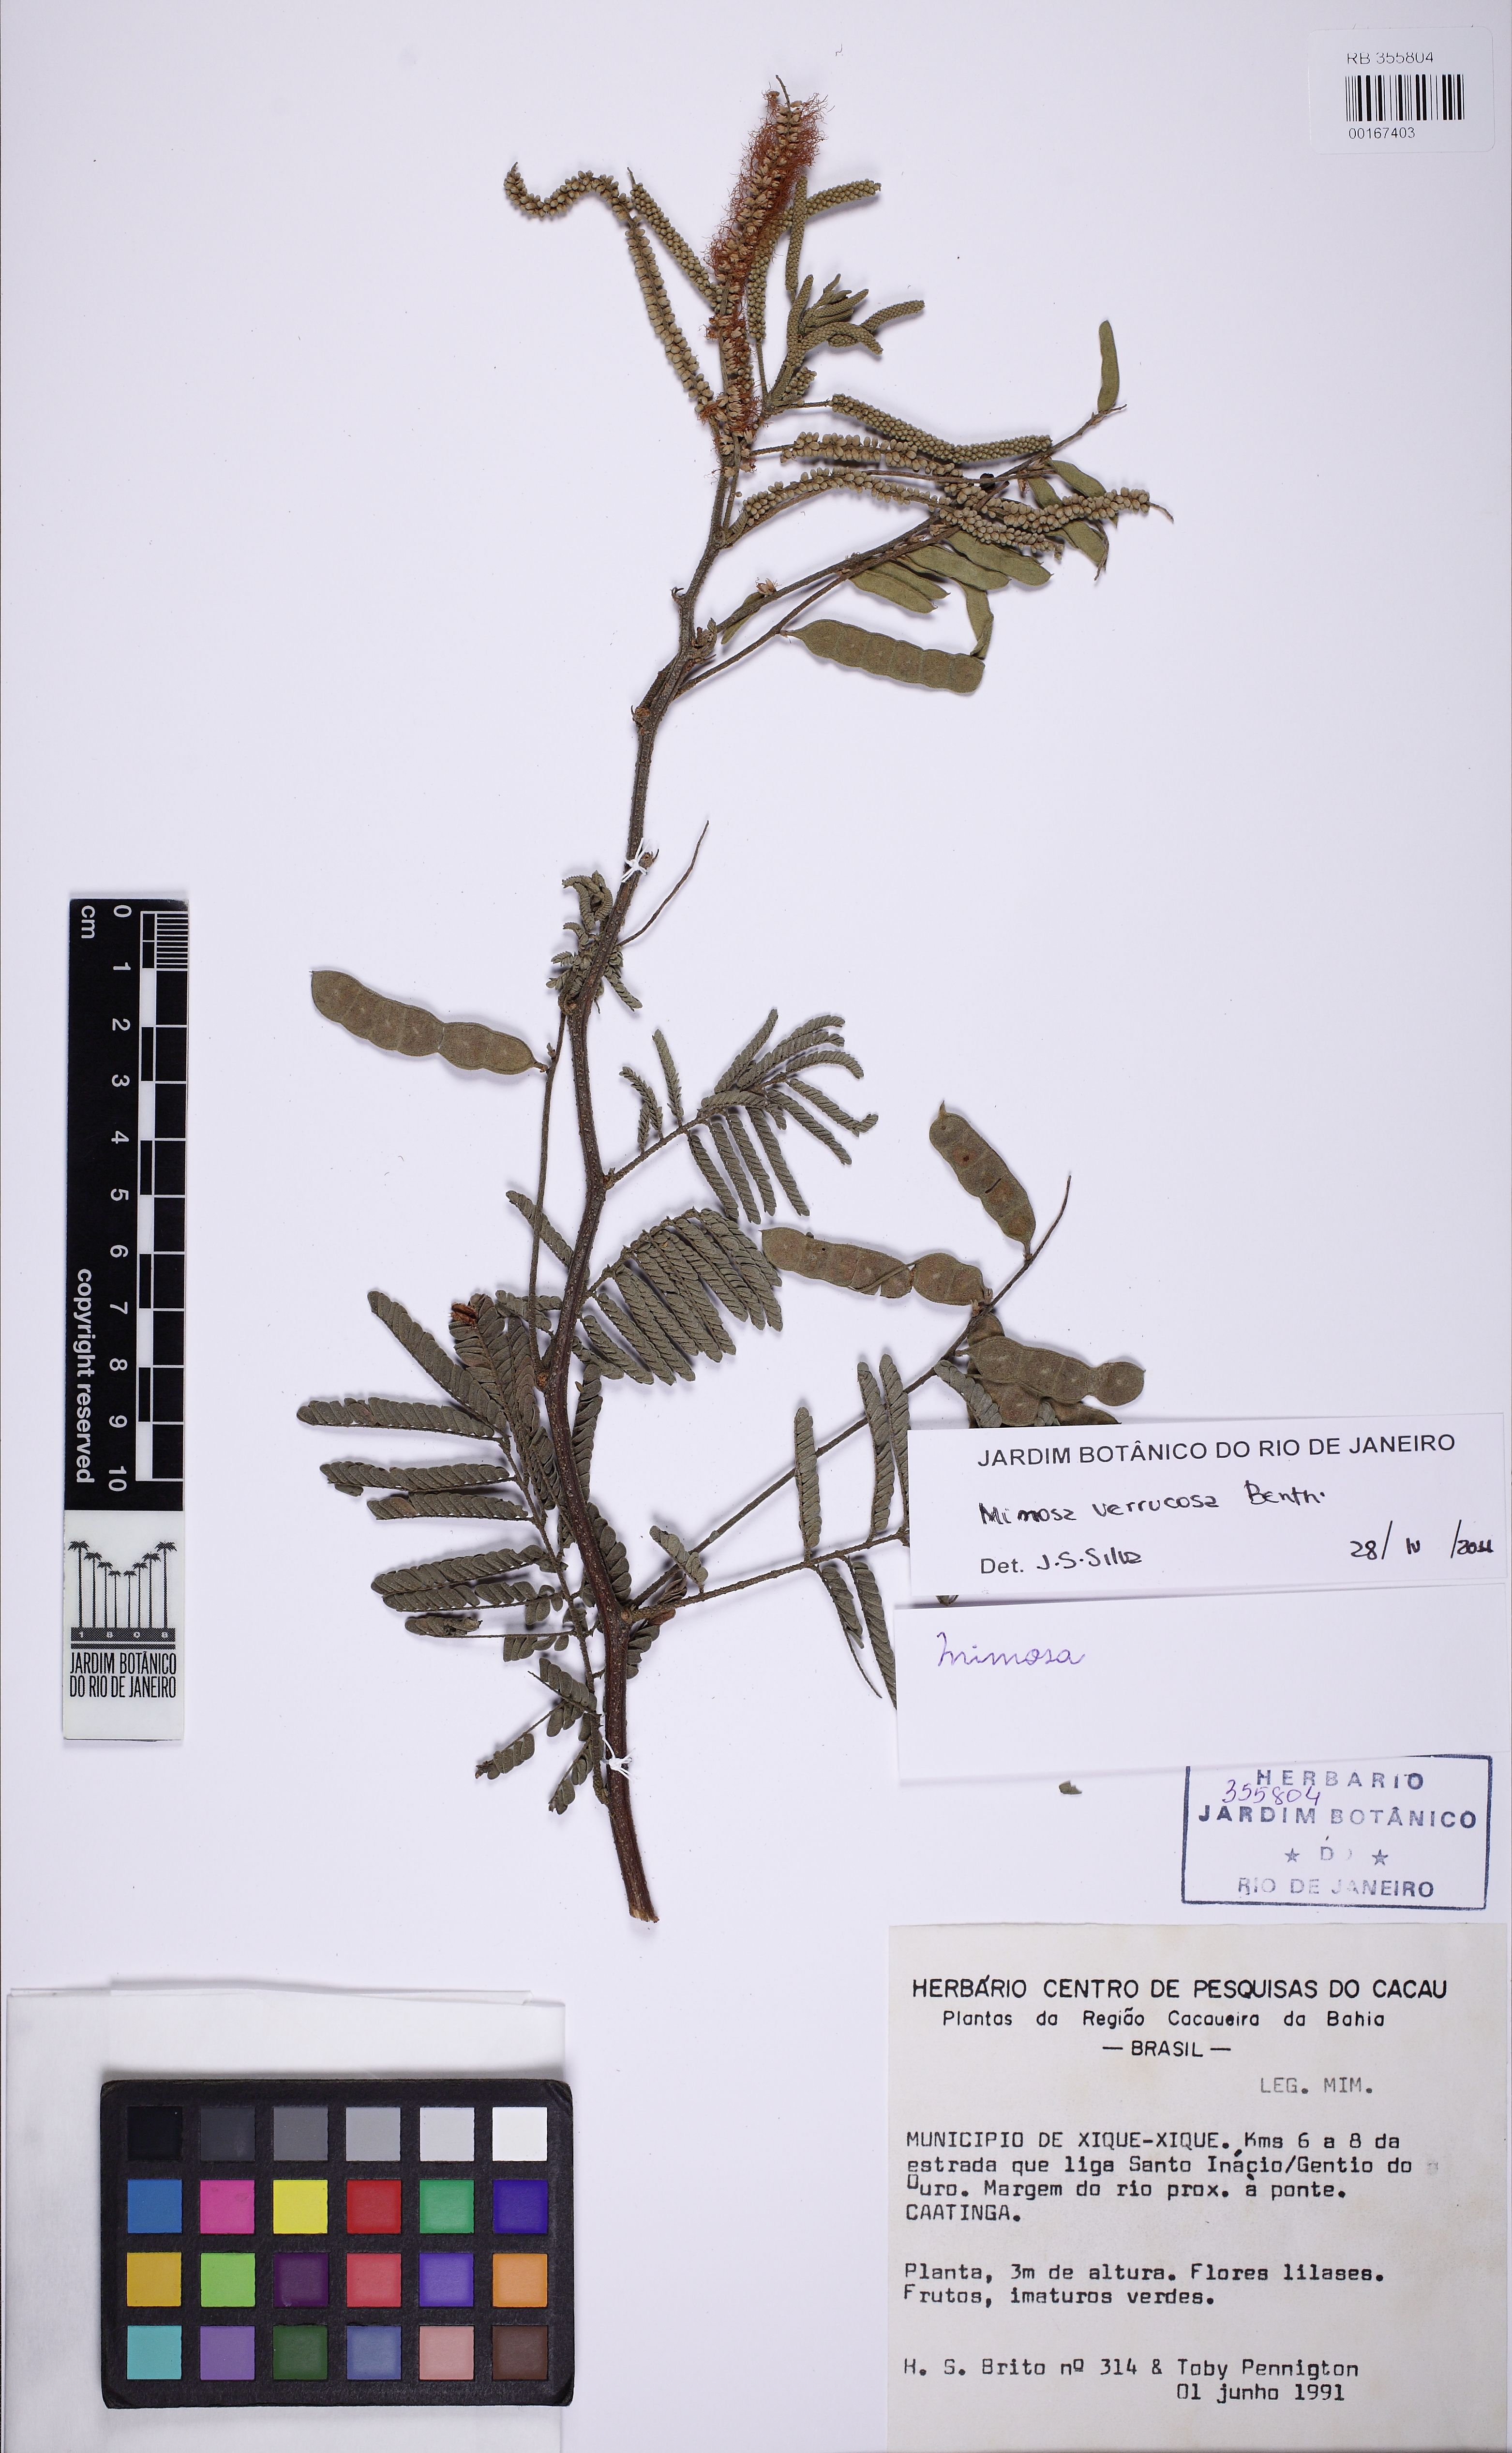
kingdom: Plantae
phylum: Tracheophyta
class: Magnoliopsida
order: Fabales
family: Fabaceae
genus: Mimosa
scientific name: Mimosa verrucosa
